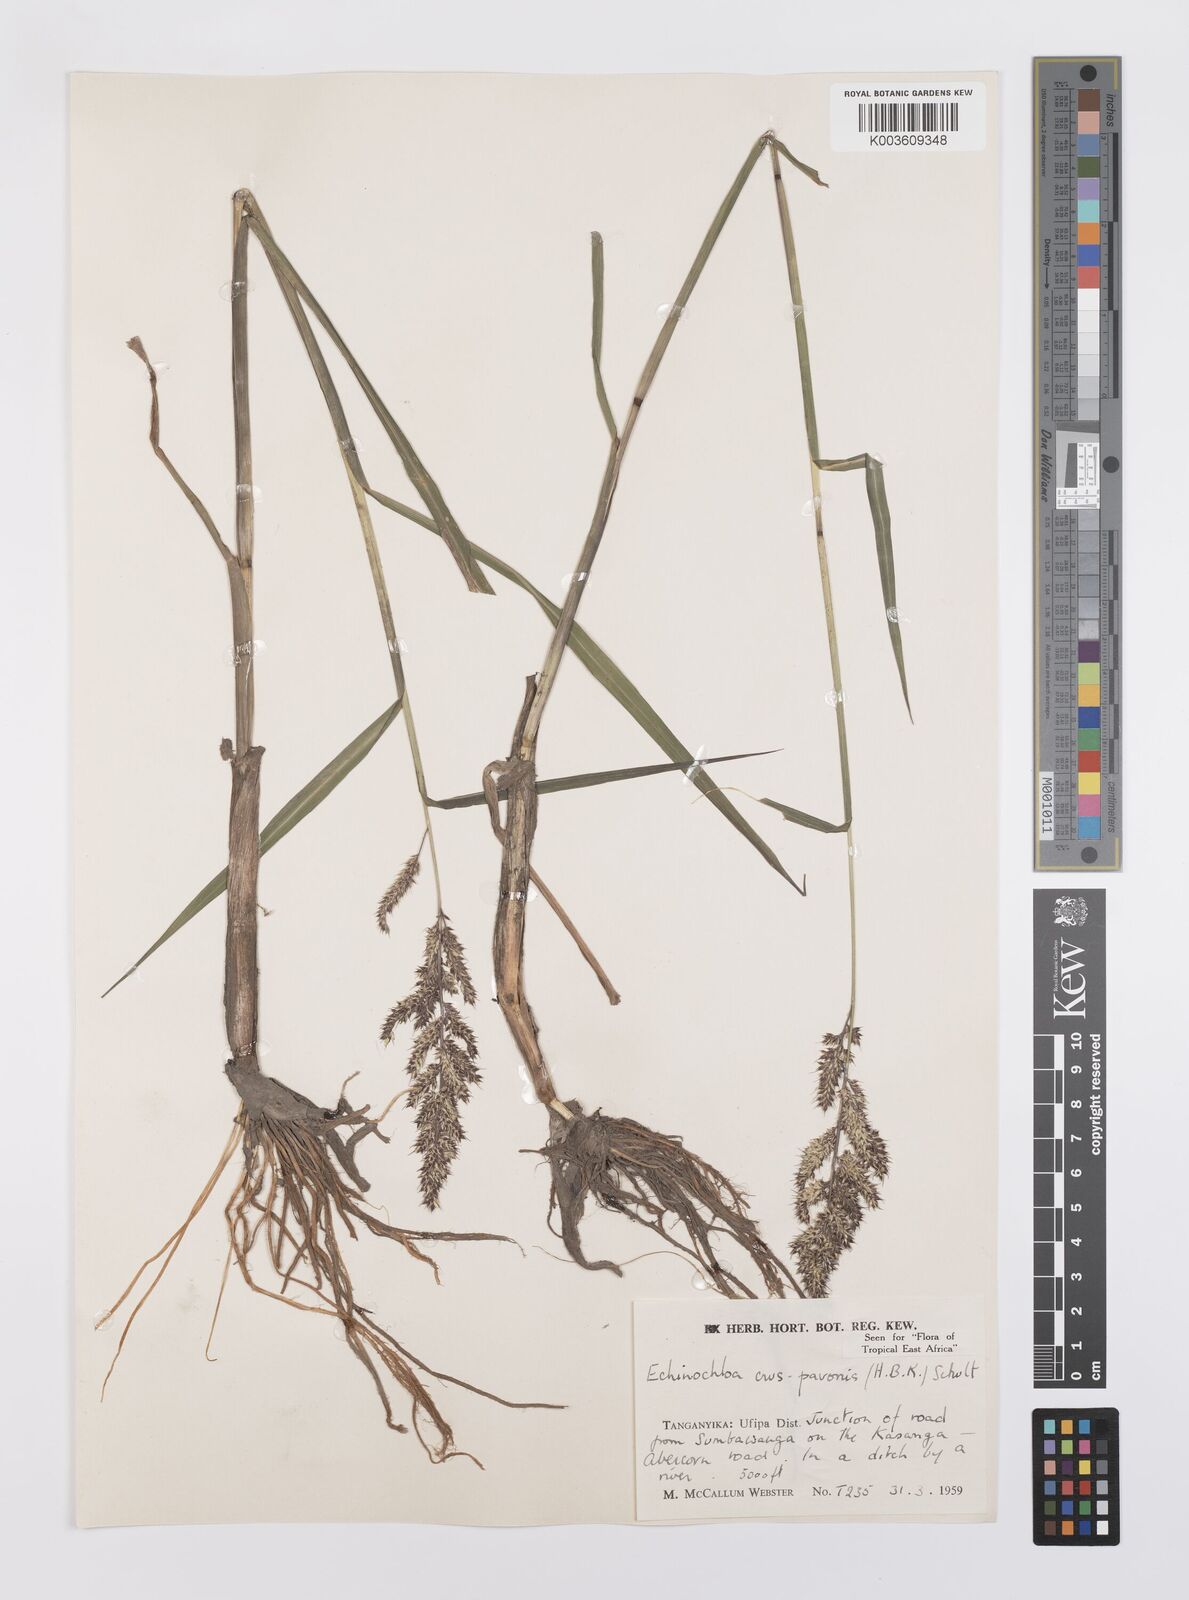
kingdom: Plantae
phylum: Tracheophyta
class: Liliopsida
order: Poales
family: Poaceae
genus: Echinochloa
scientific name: Echinochloa crus-pavonis
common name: Gulf cockspur grass
